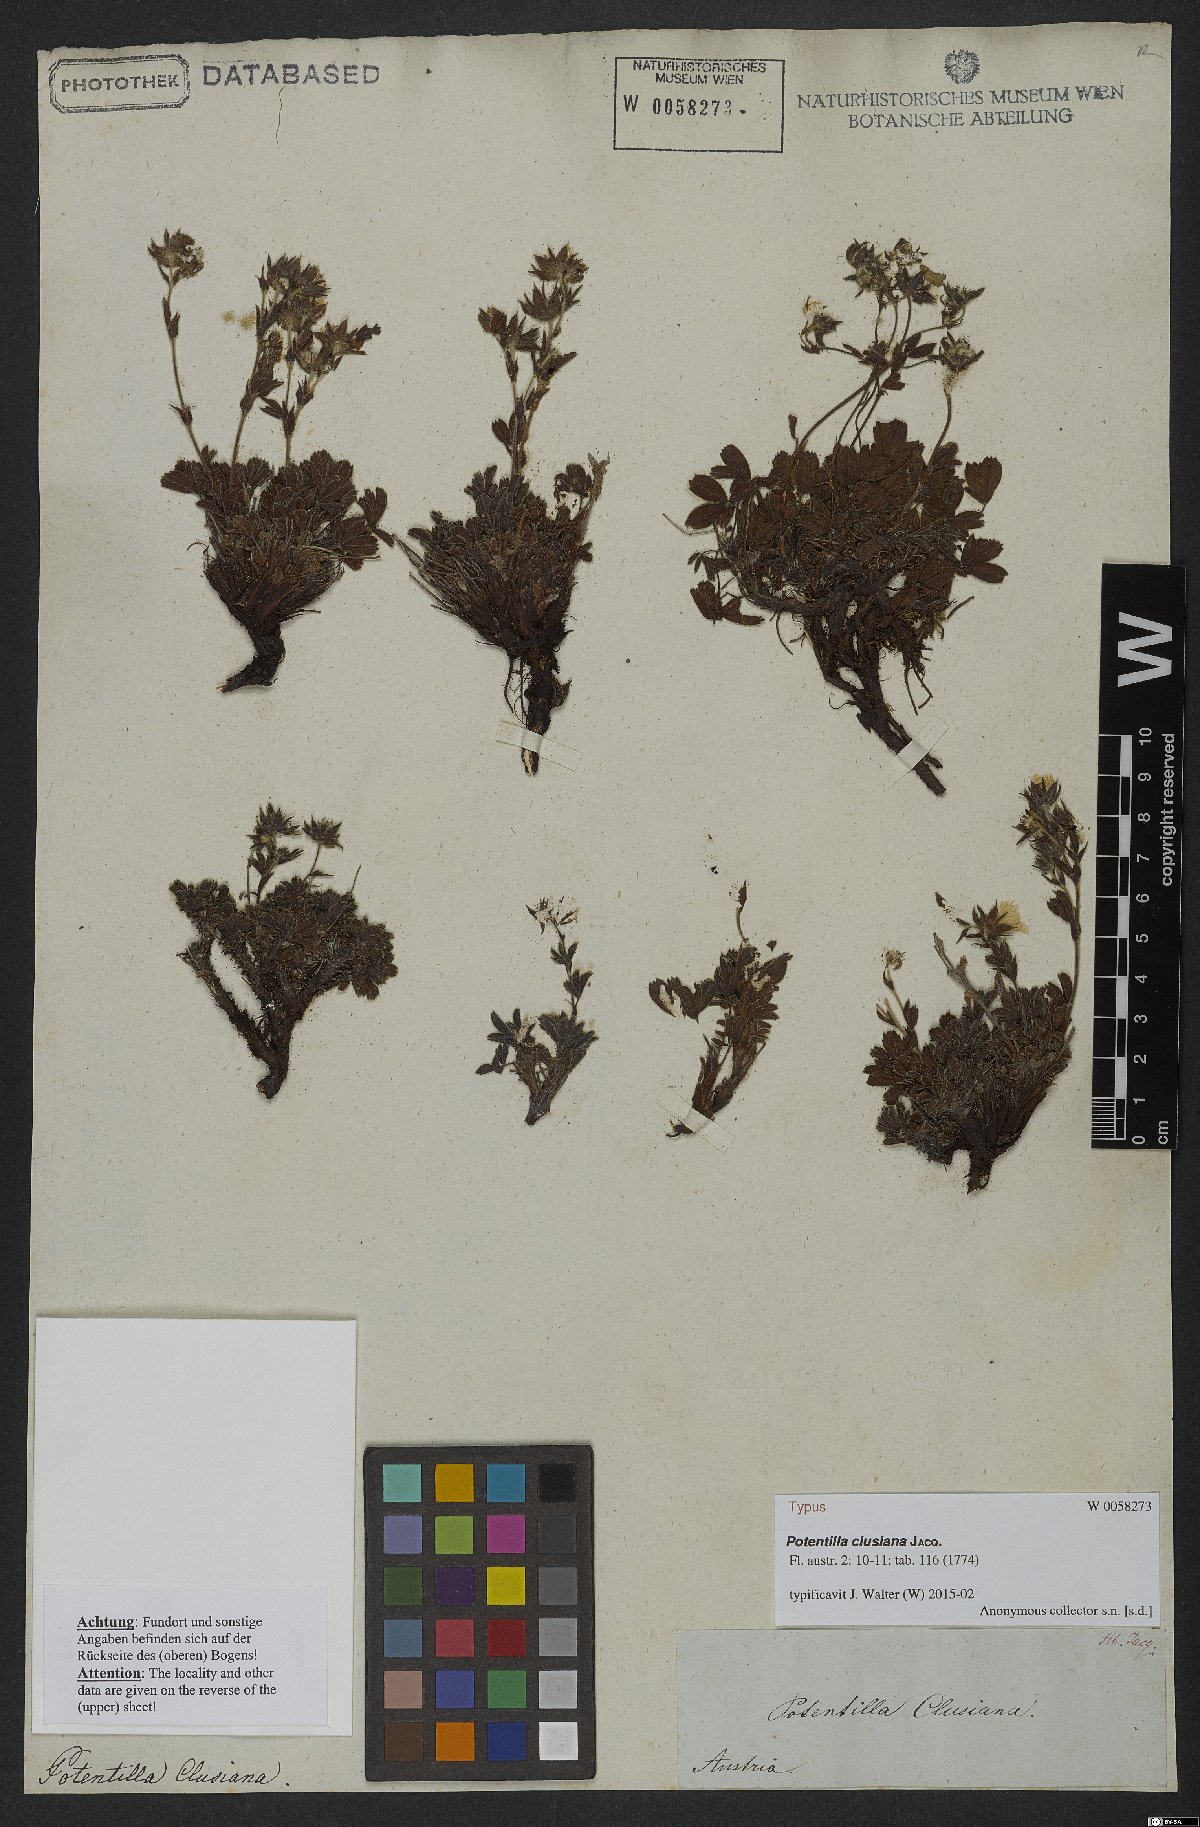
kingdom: Plantae
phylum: Tracheophyta
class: Magnoliopsida
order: Rosales
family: Rosaceae
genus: Potentilla
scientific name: Potentilla clusiana
